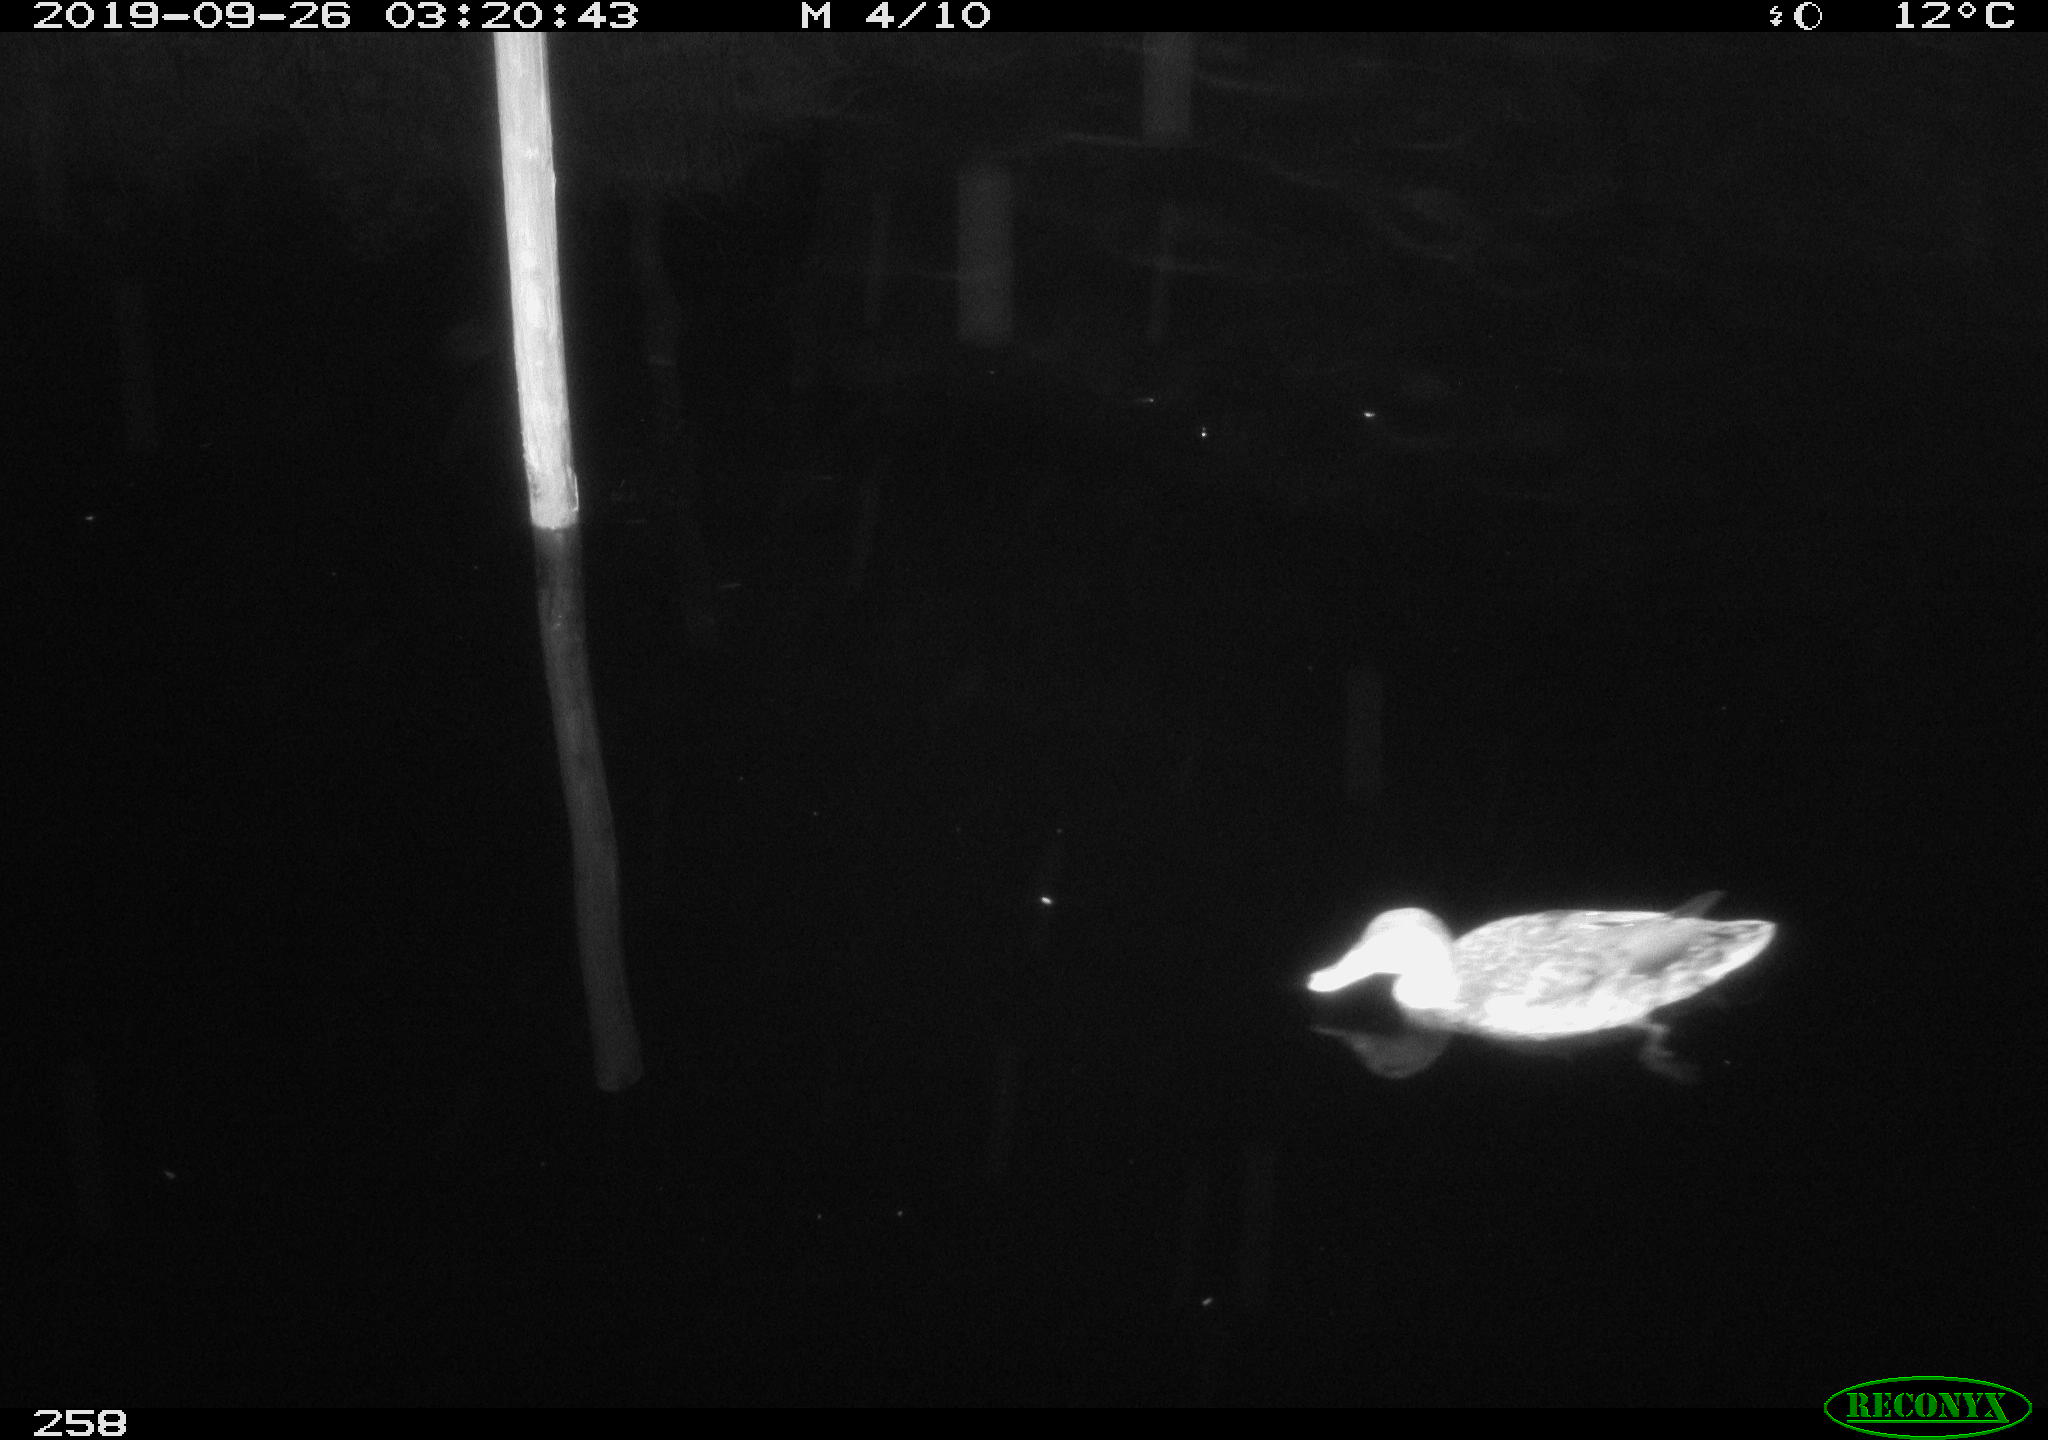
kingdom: Animalia
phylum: Chordata
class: Aves
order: Anseriformes
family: Anatidae
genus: Anas
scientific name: Anas platyrhynchos
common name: Mallard
